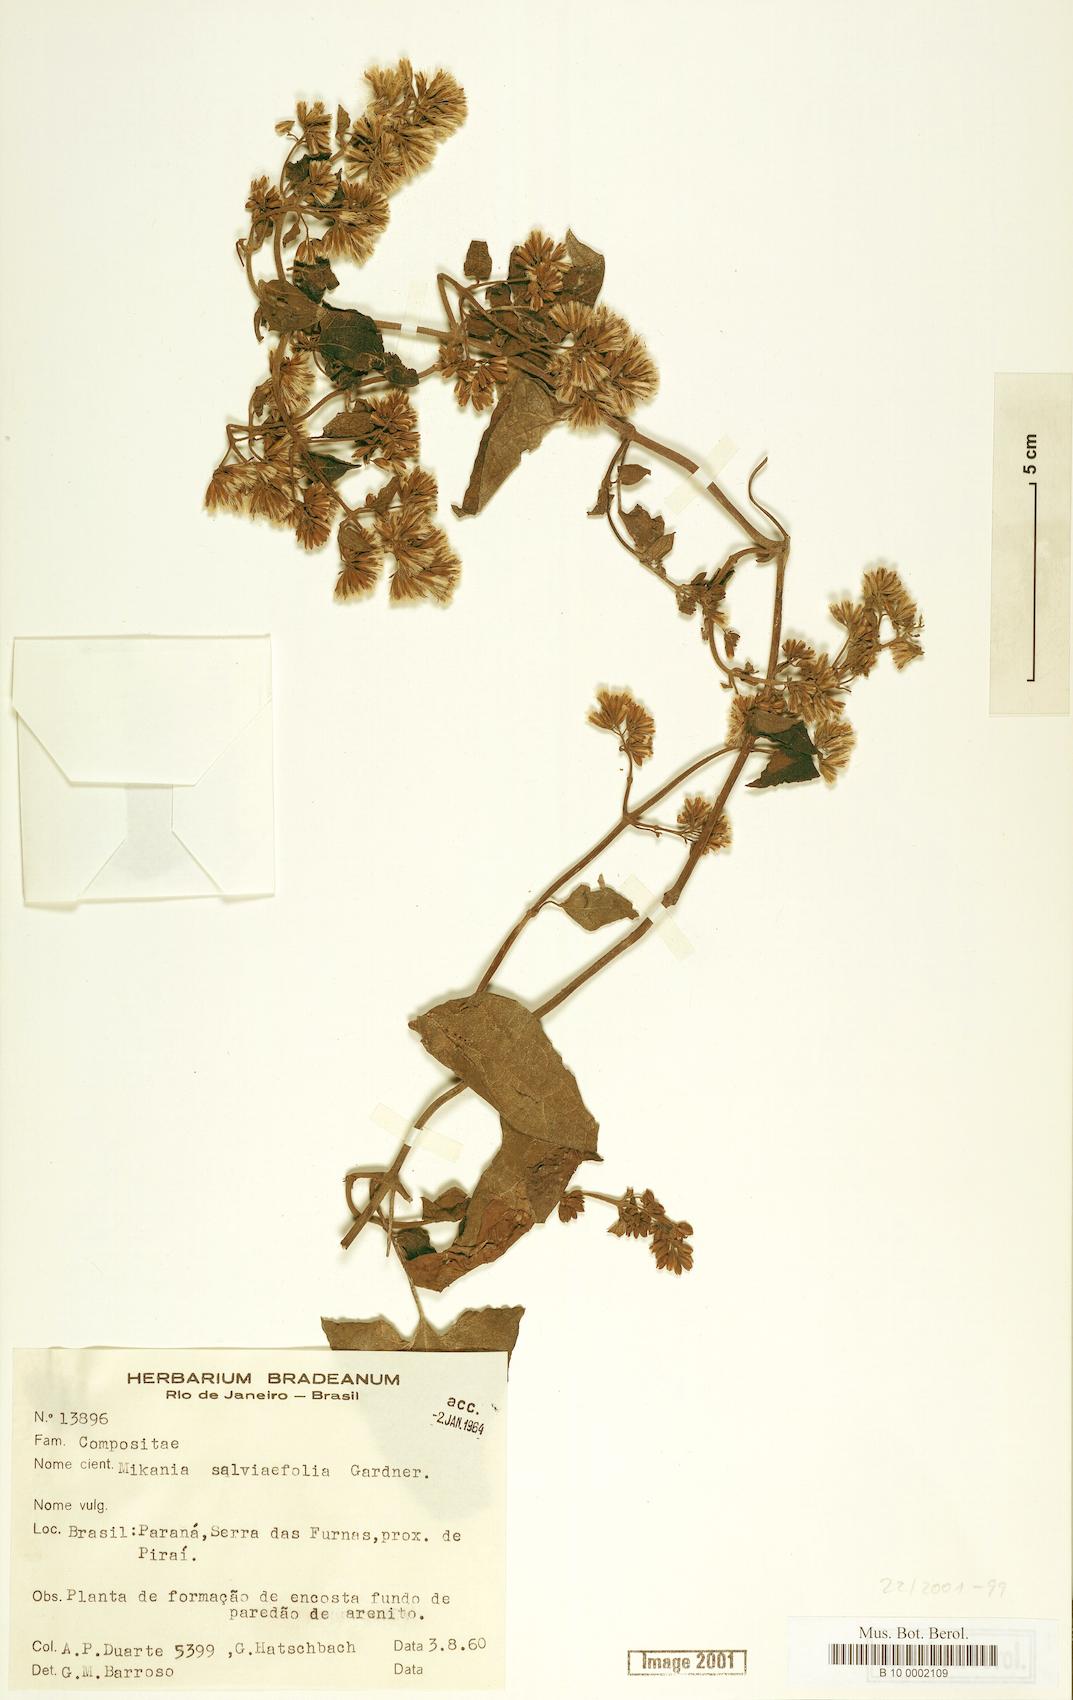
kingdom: Plantae
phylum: Tracheophyta
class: Magnoliopsida
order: Asterales
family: Asteraceae
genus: Mikania
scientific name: Mikania salviifolia
